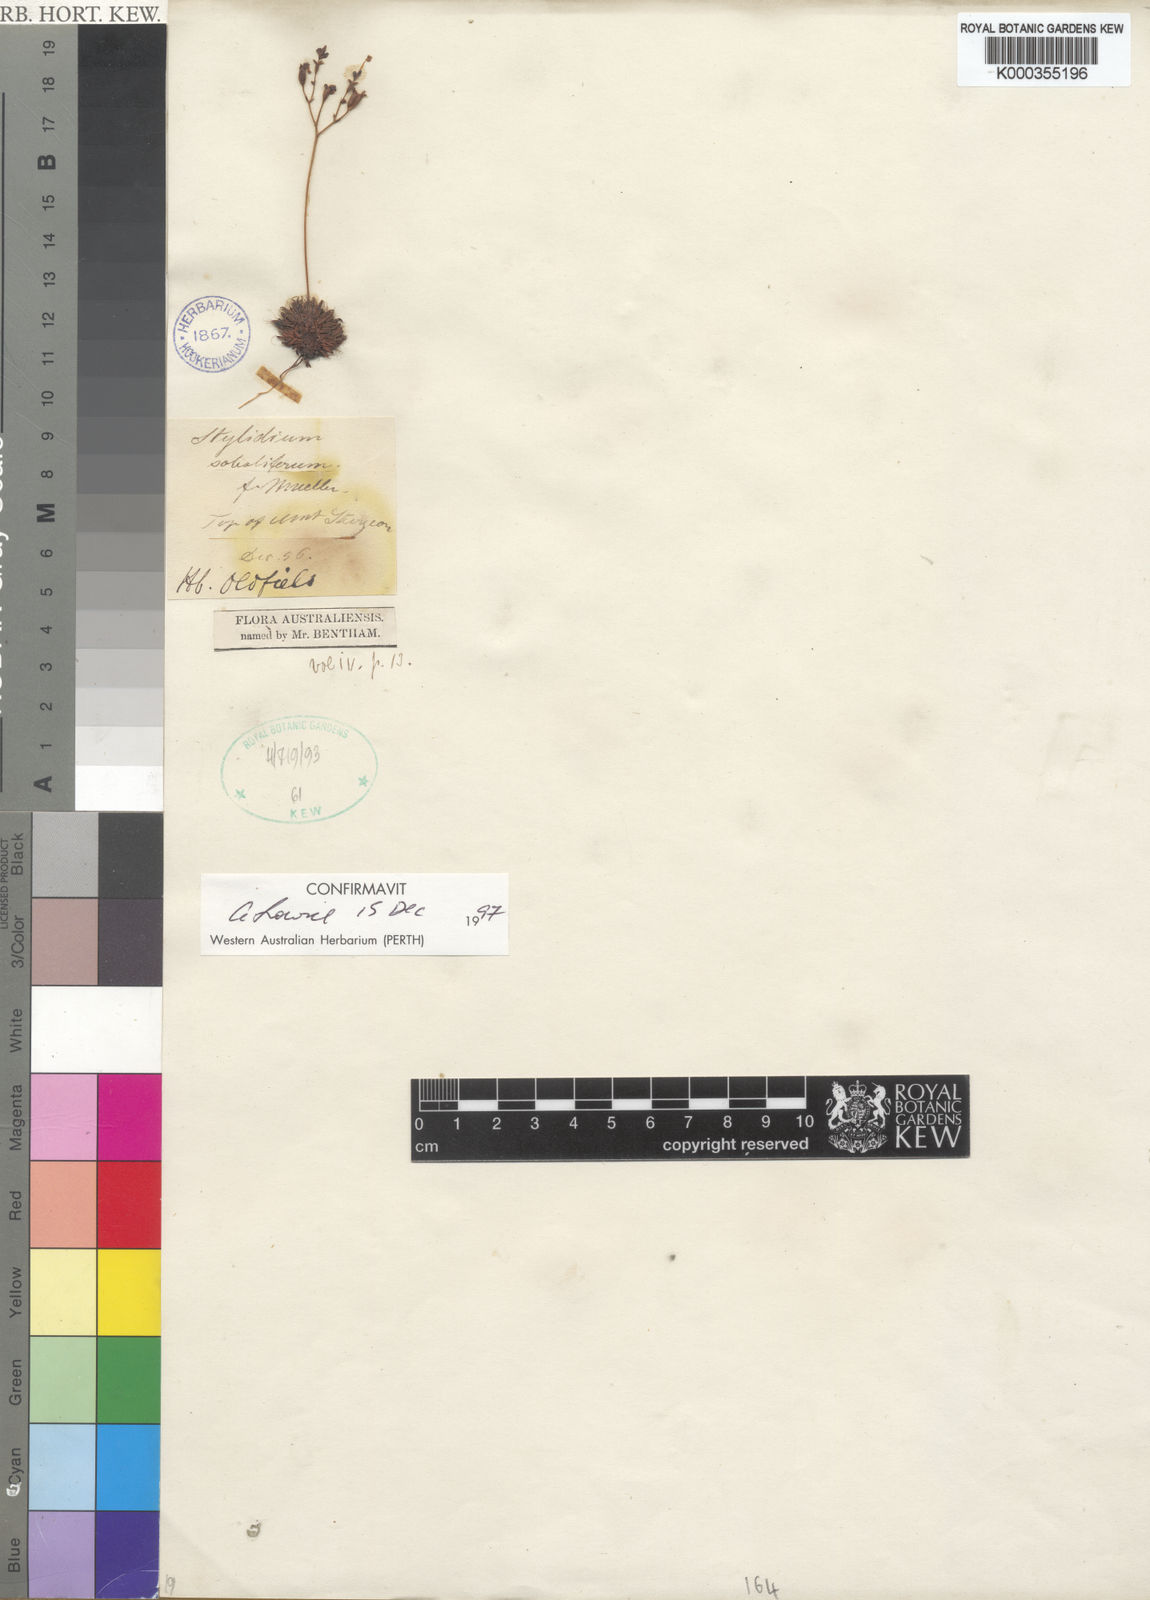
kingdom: Plantae
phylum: Tracheophyta
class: Magnoliopsida
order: Asterales
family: Stylidiaceae
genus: Stylidium
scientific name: Stylidium soboliferum
